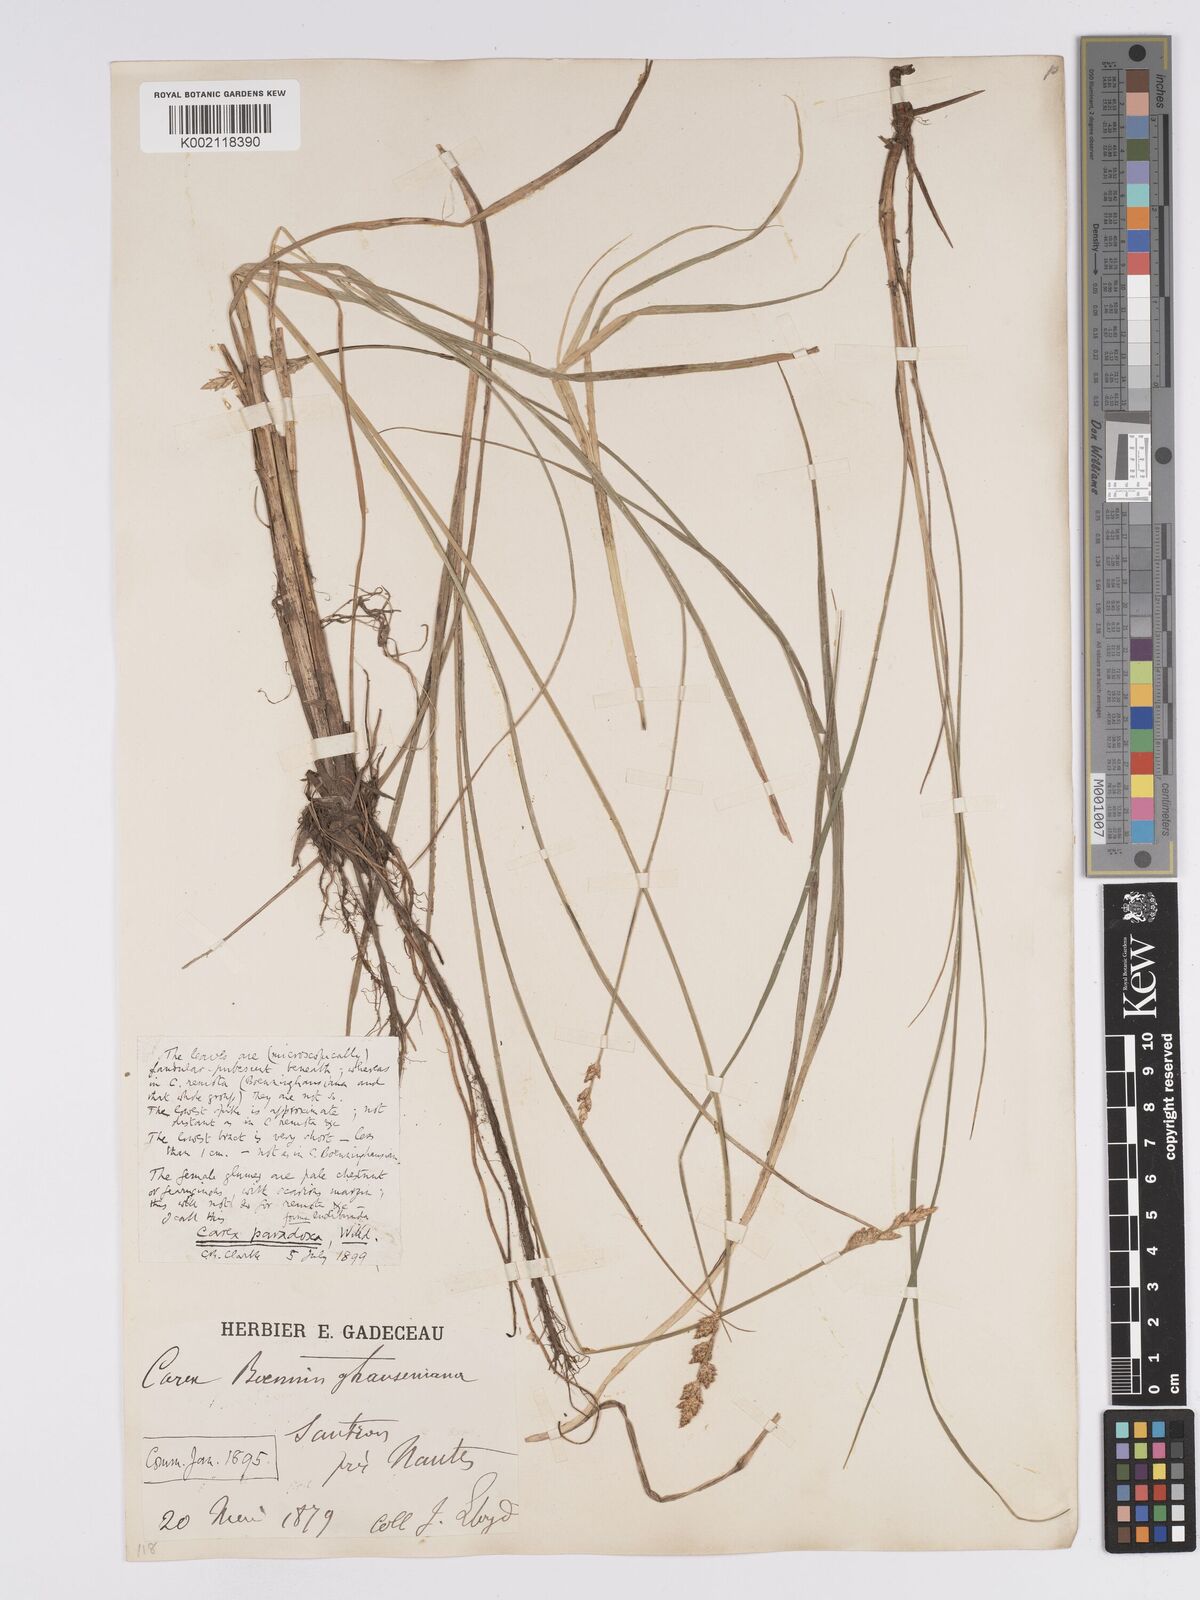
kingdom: Plantae
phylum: Tracheophyta
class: Liliopsida
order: Poales
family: Cyperaceae
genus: Carex
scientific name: Carex paniculata
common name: Greater tussock-sedge
